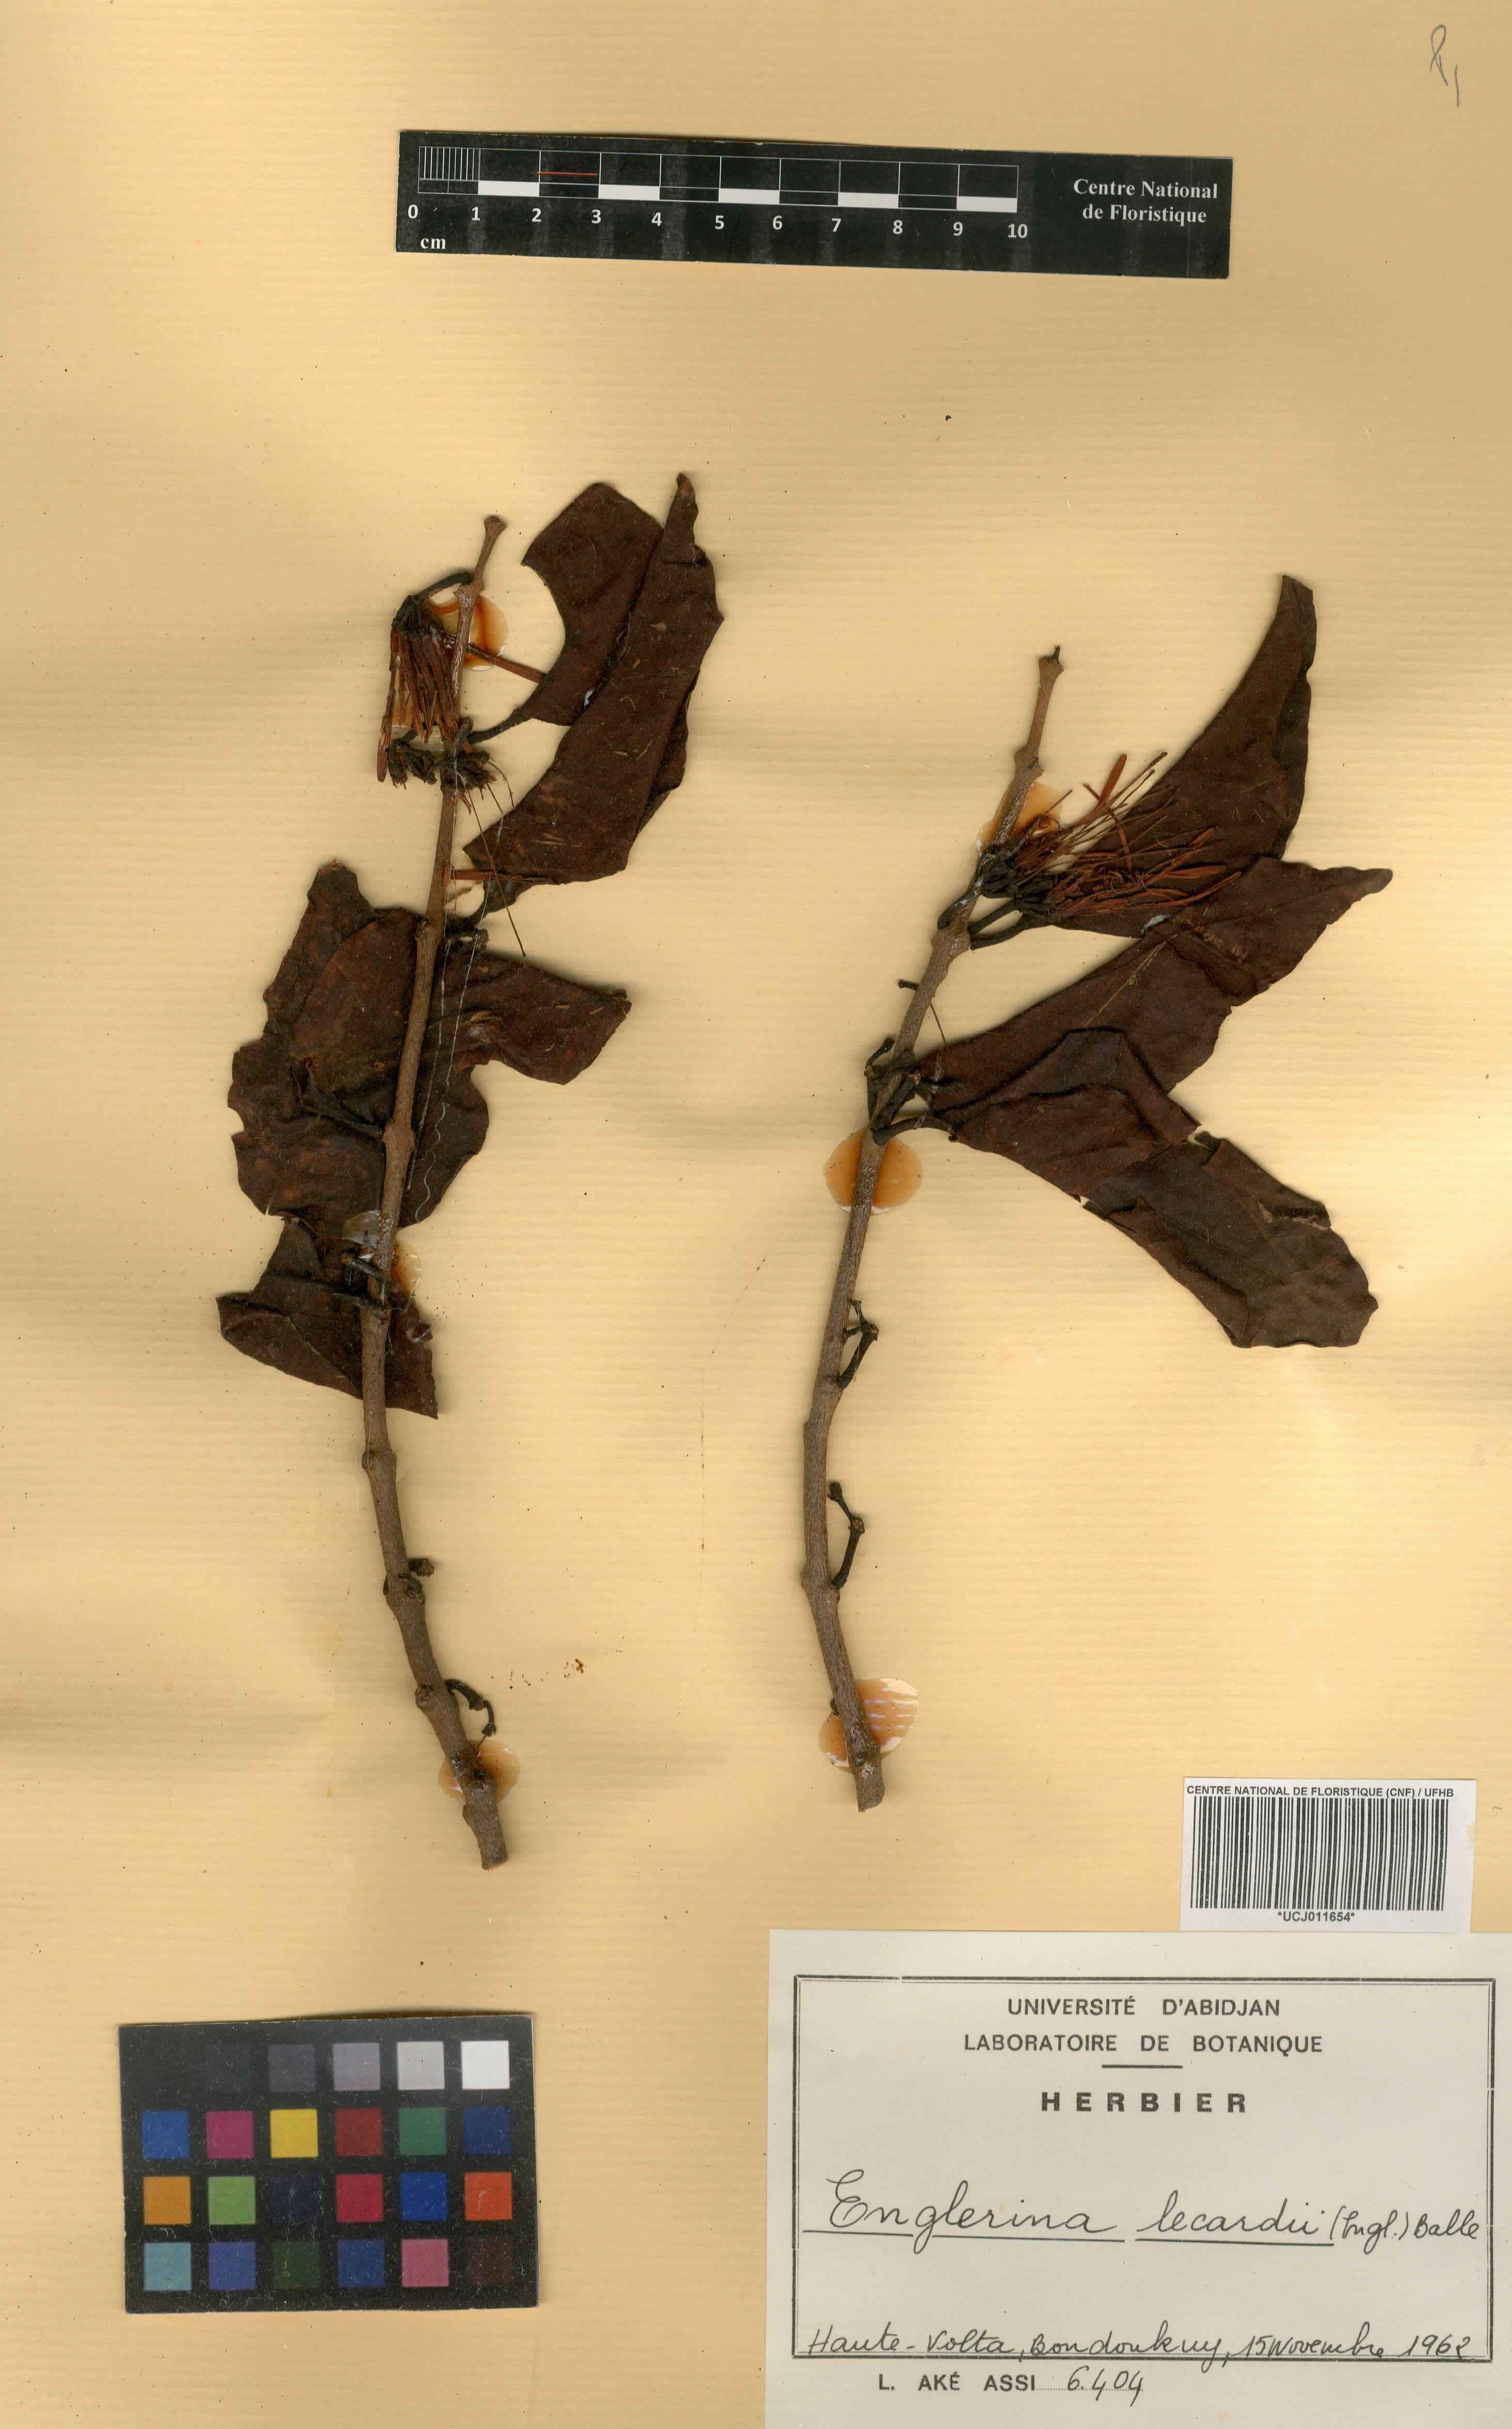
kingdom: Plantae
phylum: Tracheophyta
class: Magnoliopsida
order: Santalales
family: Loranthaceae
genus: Englerina
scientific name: Englerina lecardii
